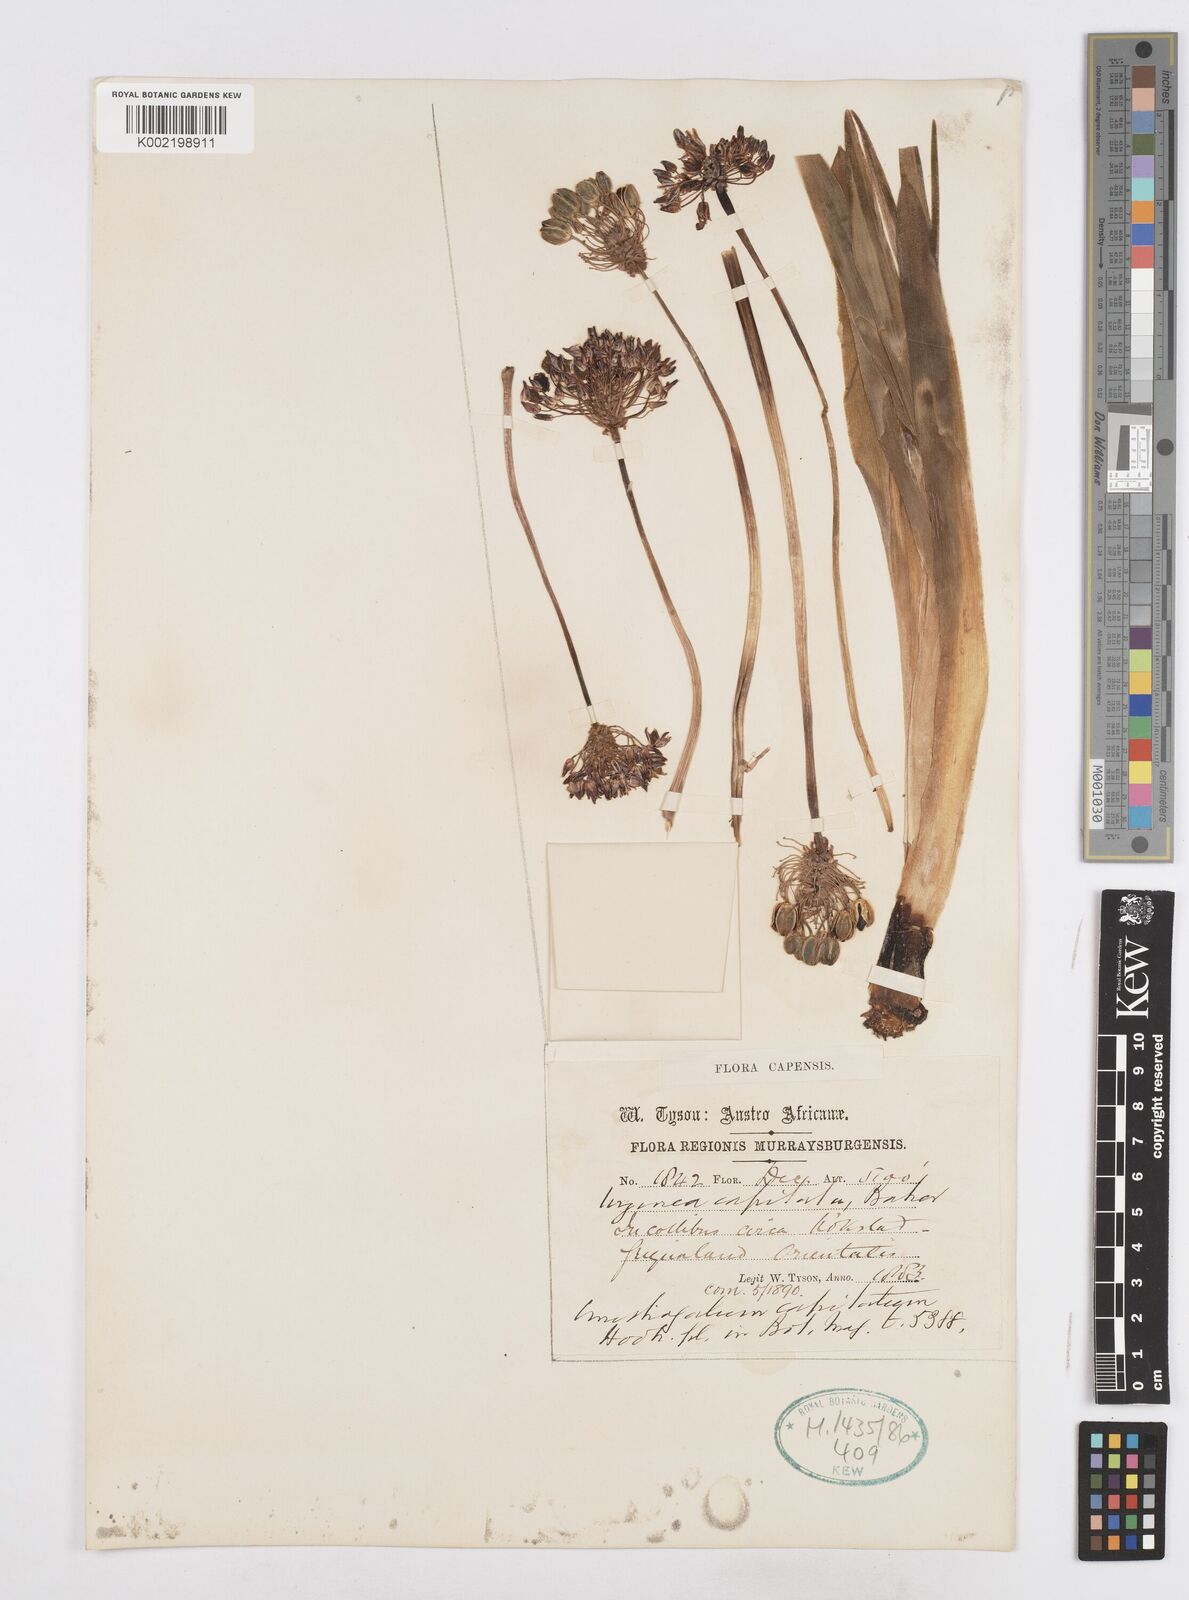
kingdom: Plantae
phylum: Tracheophyta
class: Liliopsida
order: Asparagales
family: Asparagaceae
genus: Drimia
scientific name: Drimia sphaerocephala
